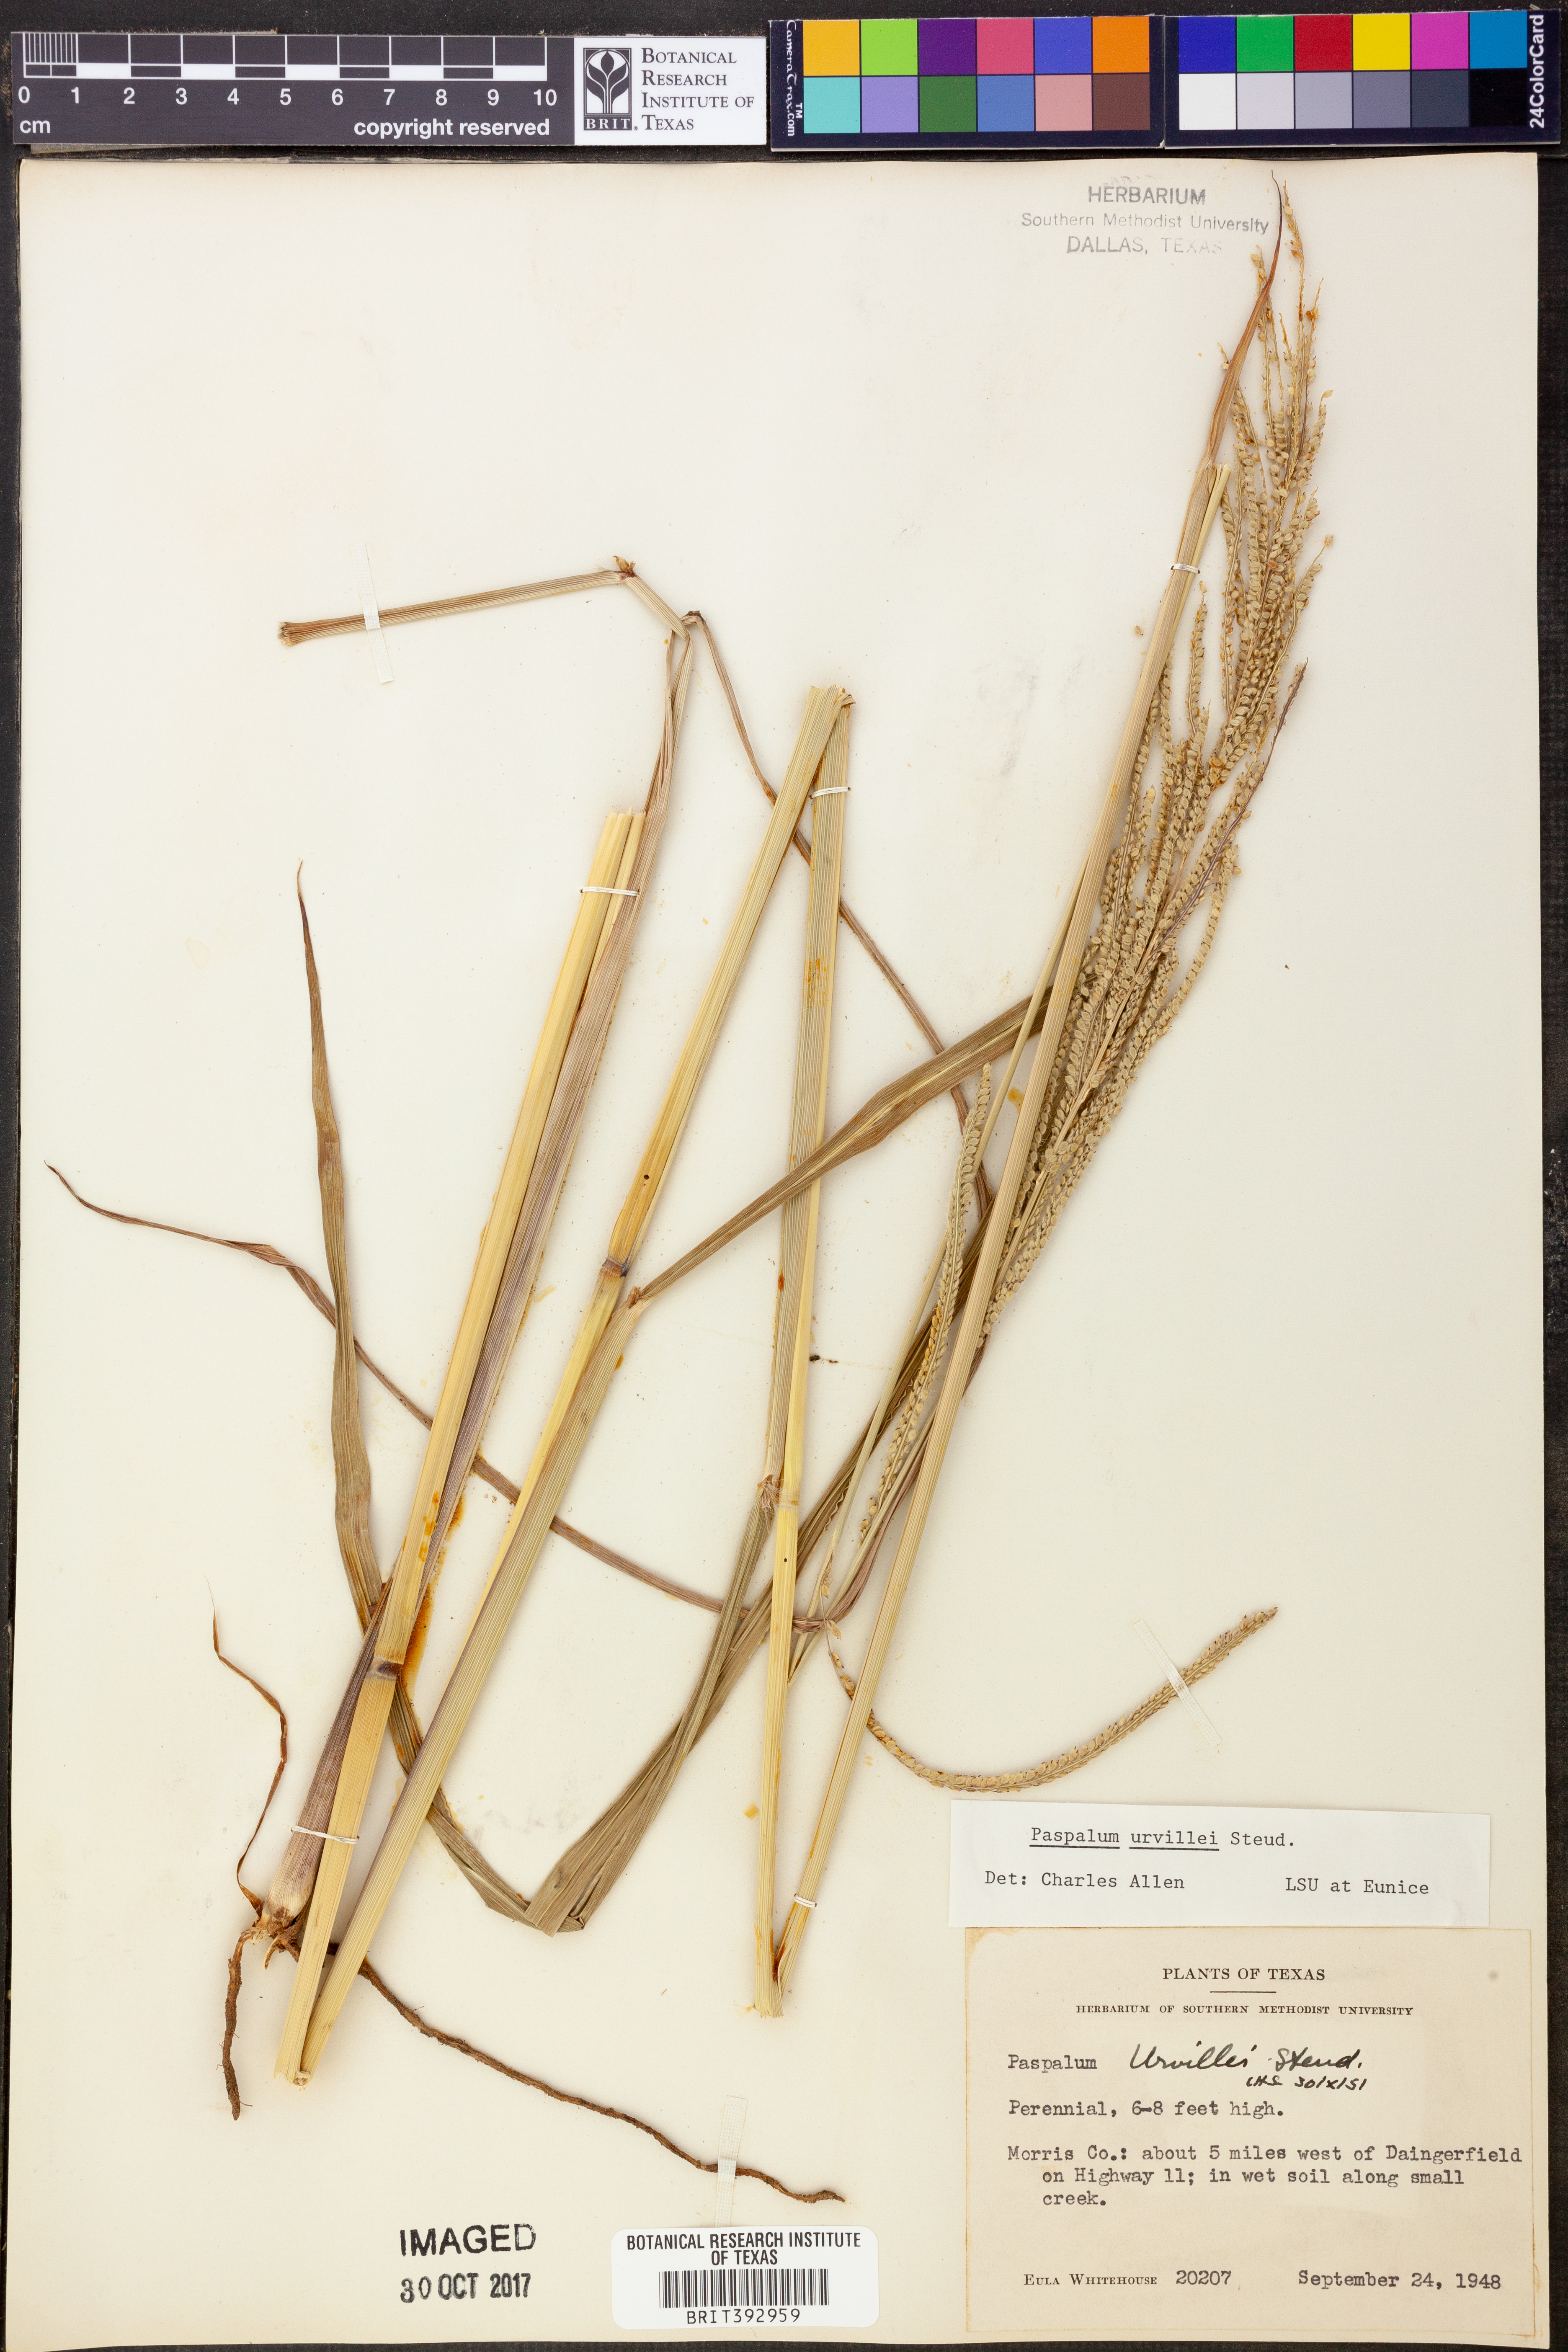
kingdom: Plantae
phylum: Tracheophyta
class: Liliopsida
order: Poales
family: Poaceae
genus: Paspalum
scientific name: Paspalum urvillei
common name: Vasey's grass
